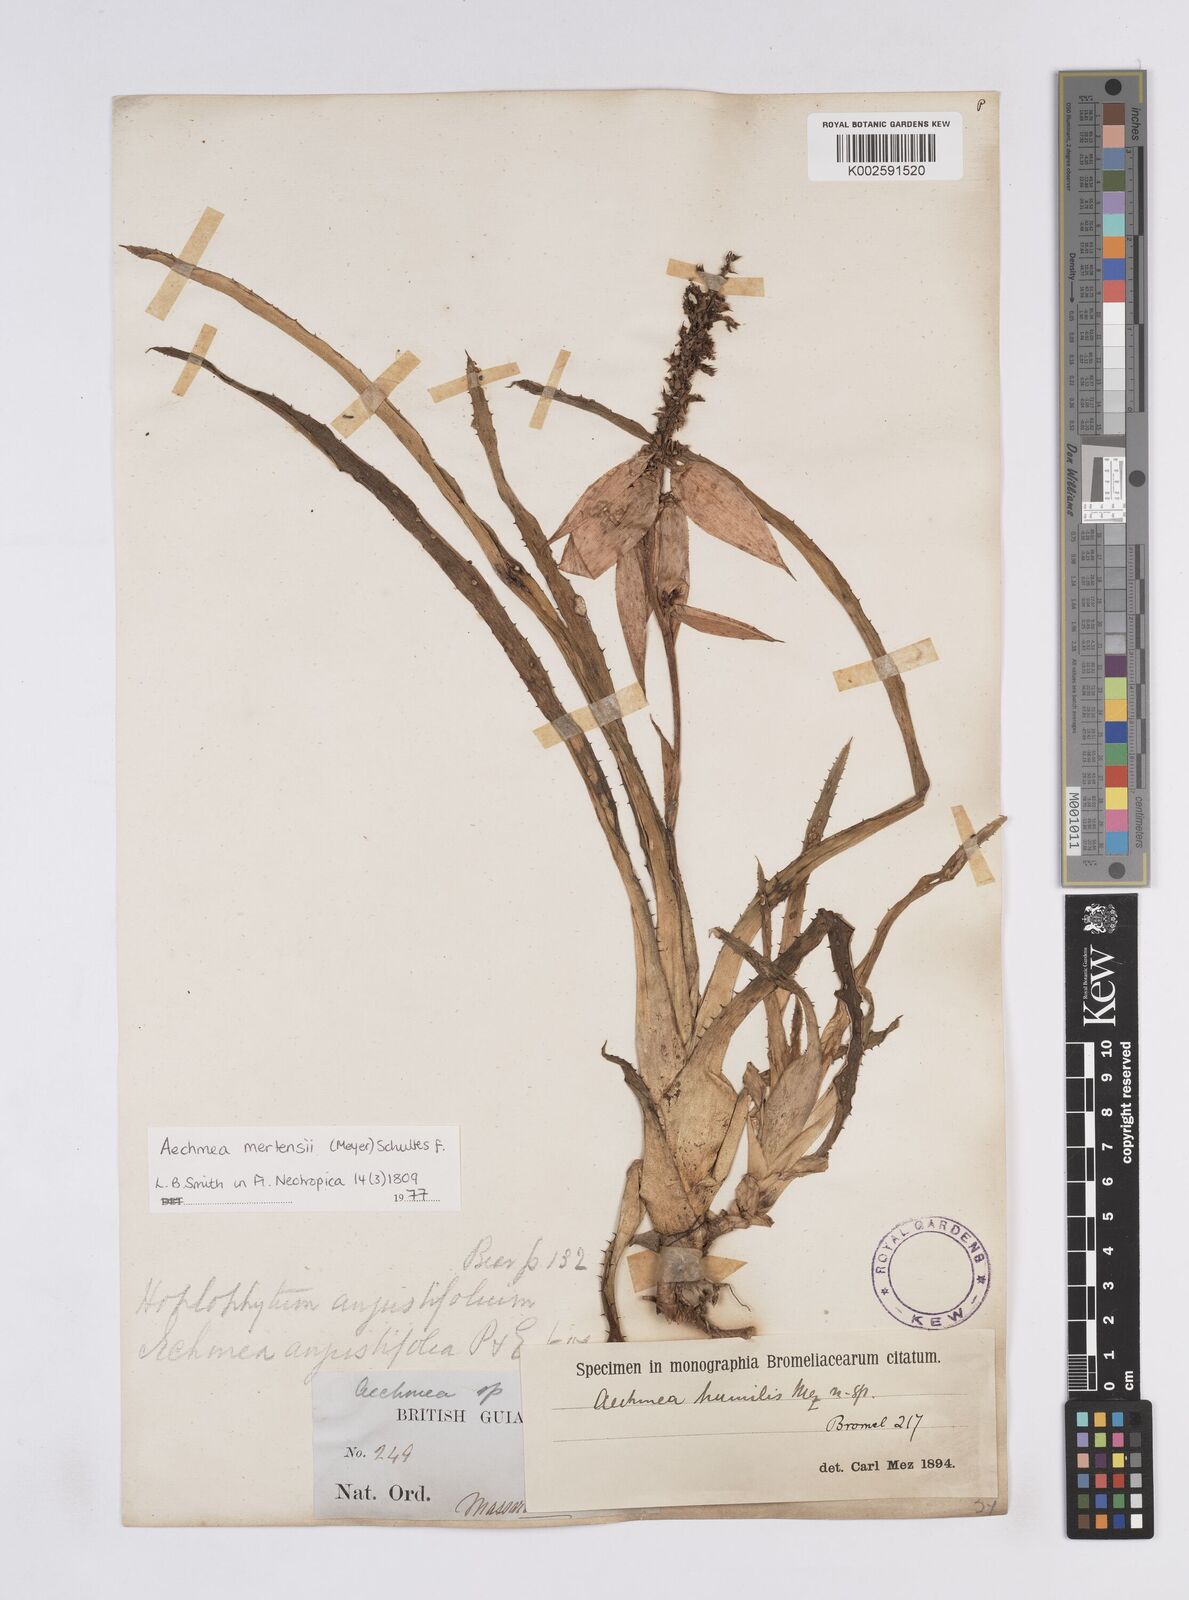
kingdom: Plantae
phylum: Tracheophyta
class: Liliopsida
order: Poales
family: Bromeliaceae
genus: Aechmea
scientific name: Aechmea mertensii
